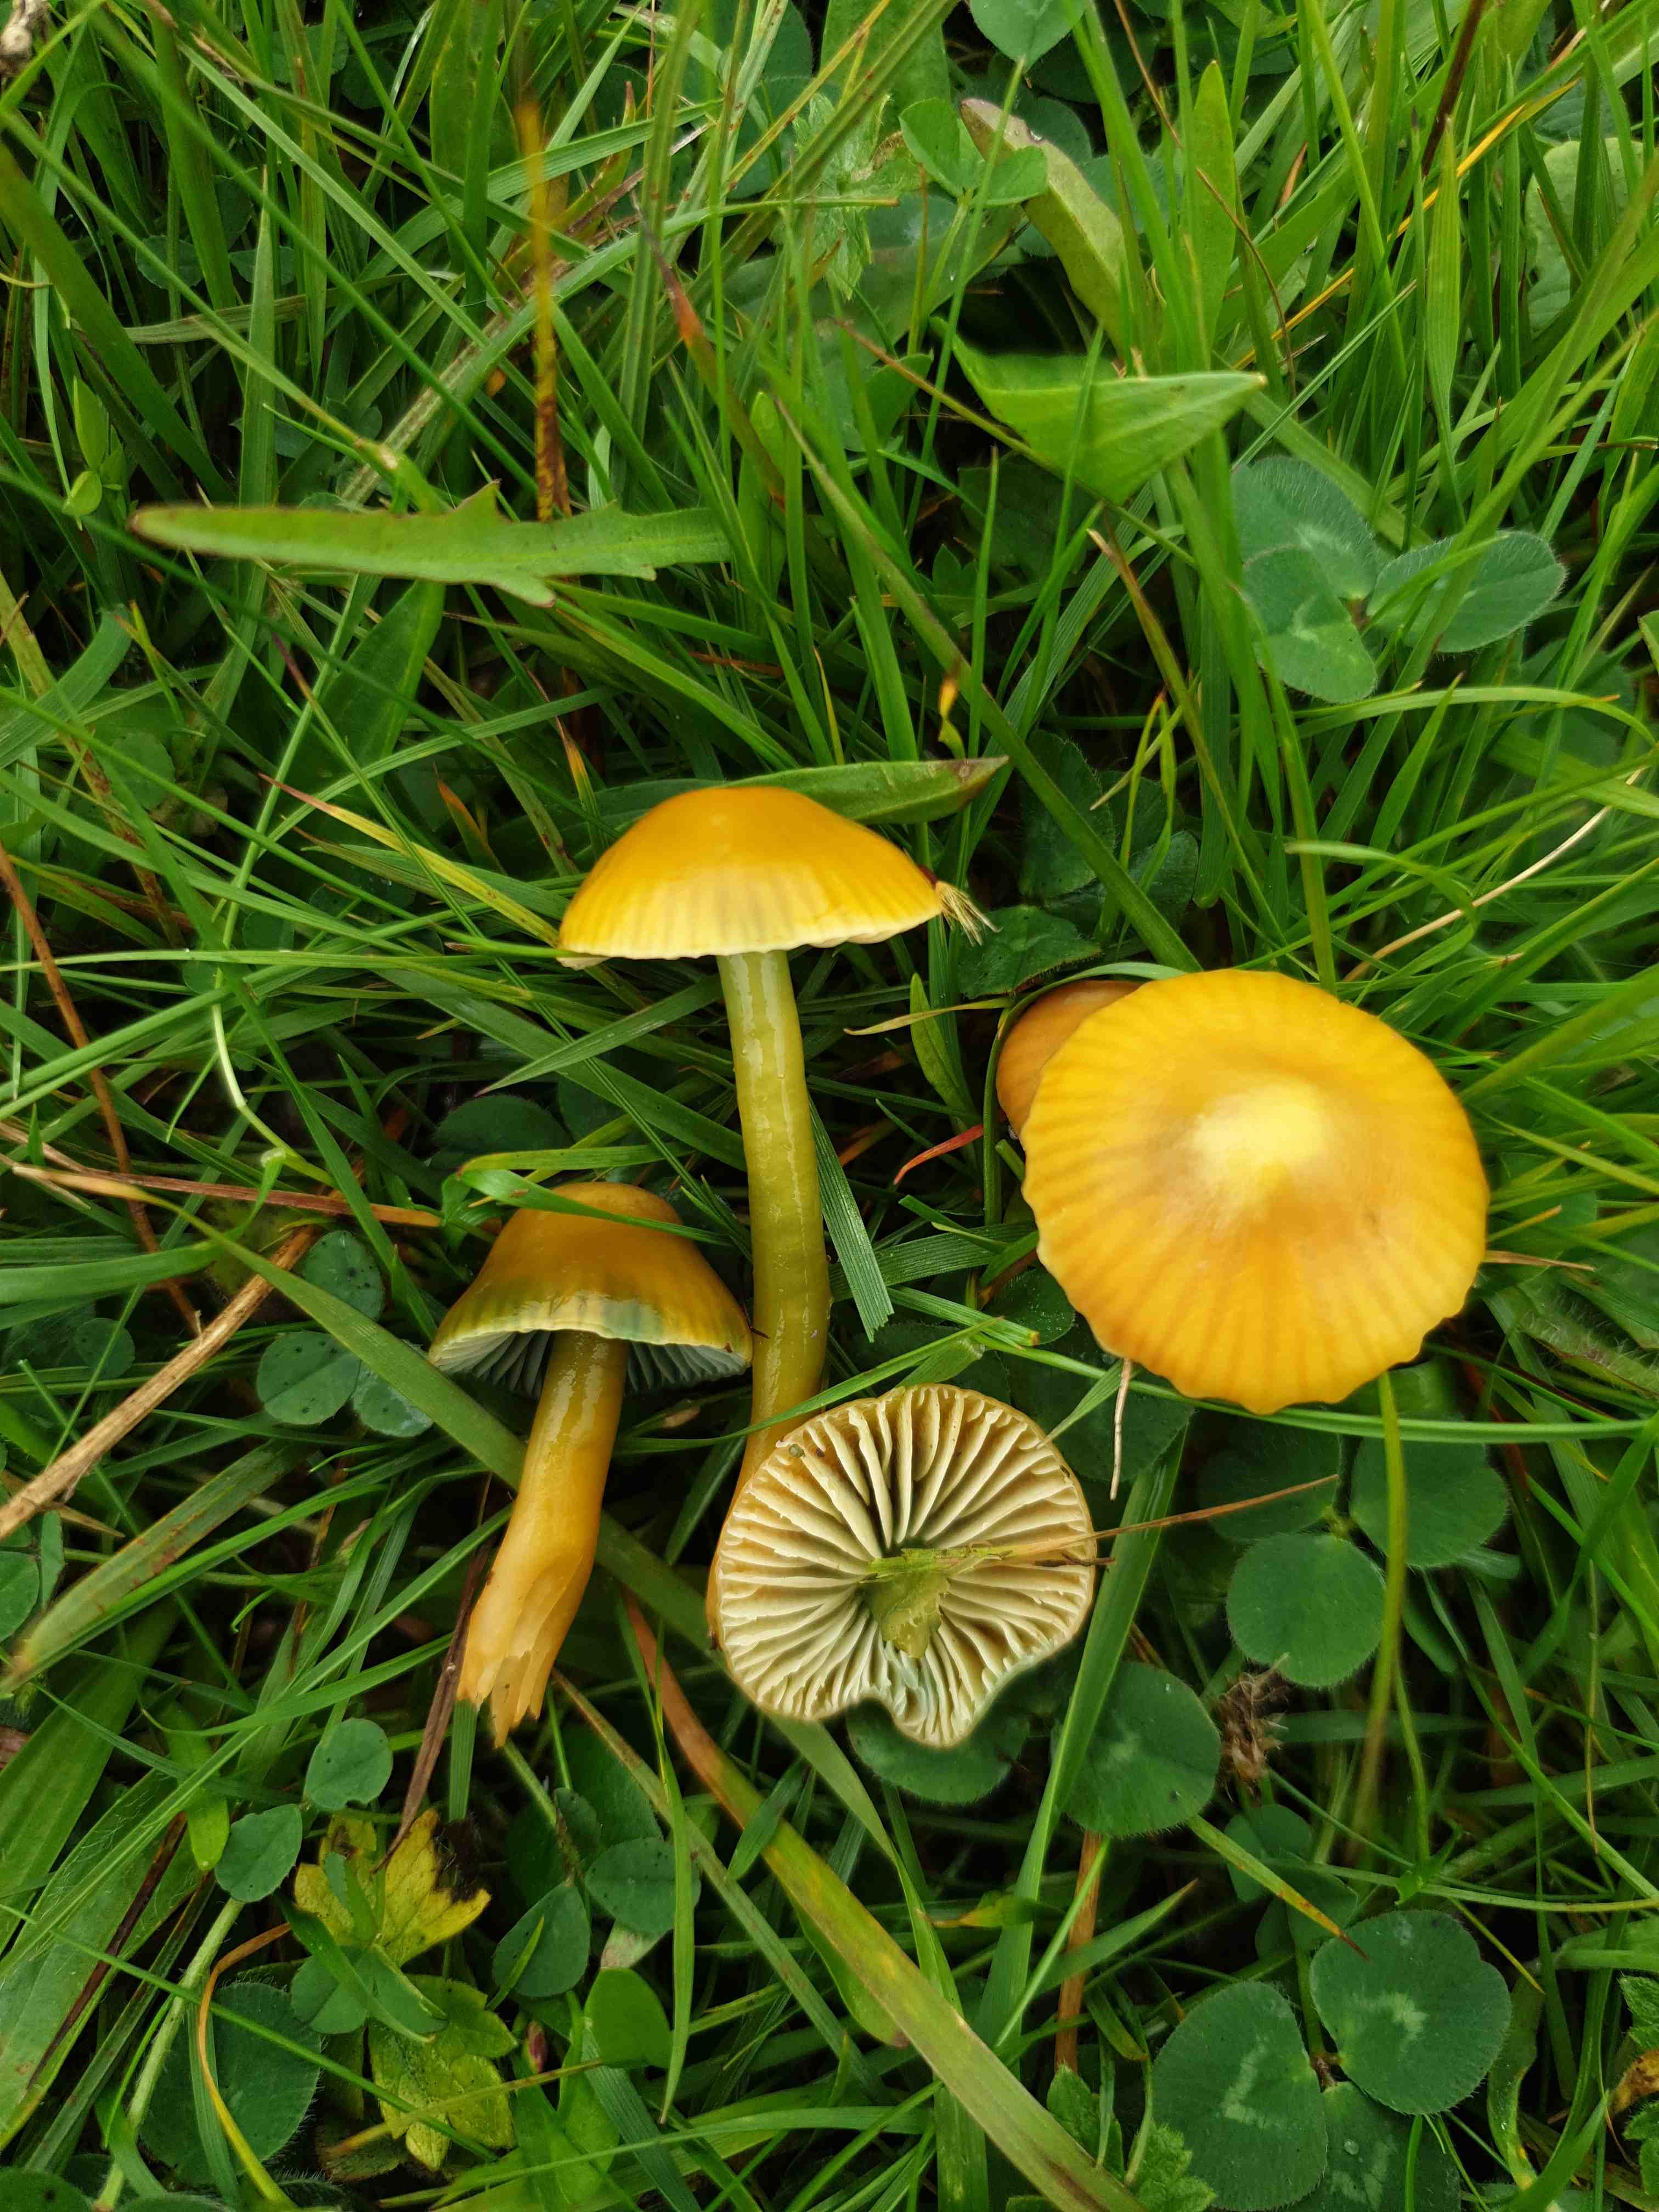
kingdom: Fungi
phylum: Basidiomycota
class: Agaricomycetes
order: Agaricales
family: Hygrophoraceae
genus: Gliophorus
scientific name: Gliophorus psittacinus
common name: papegøje-vokshat
